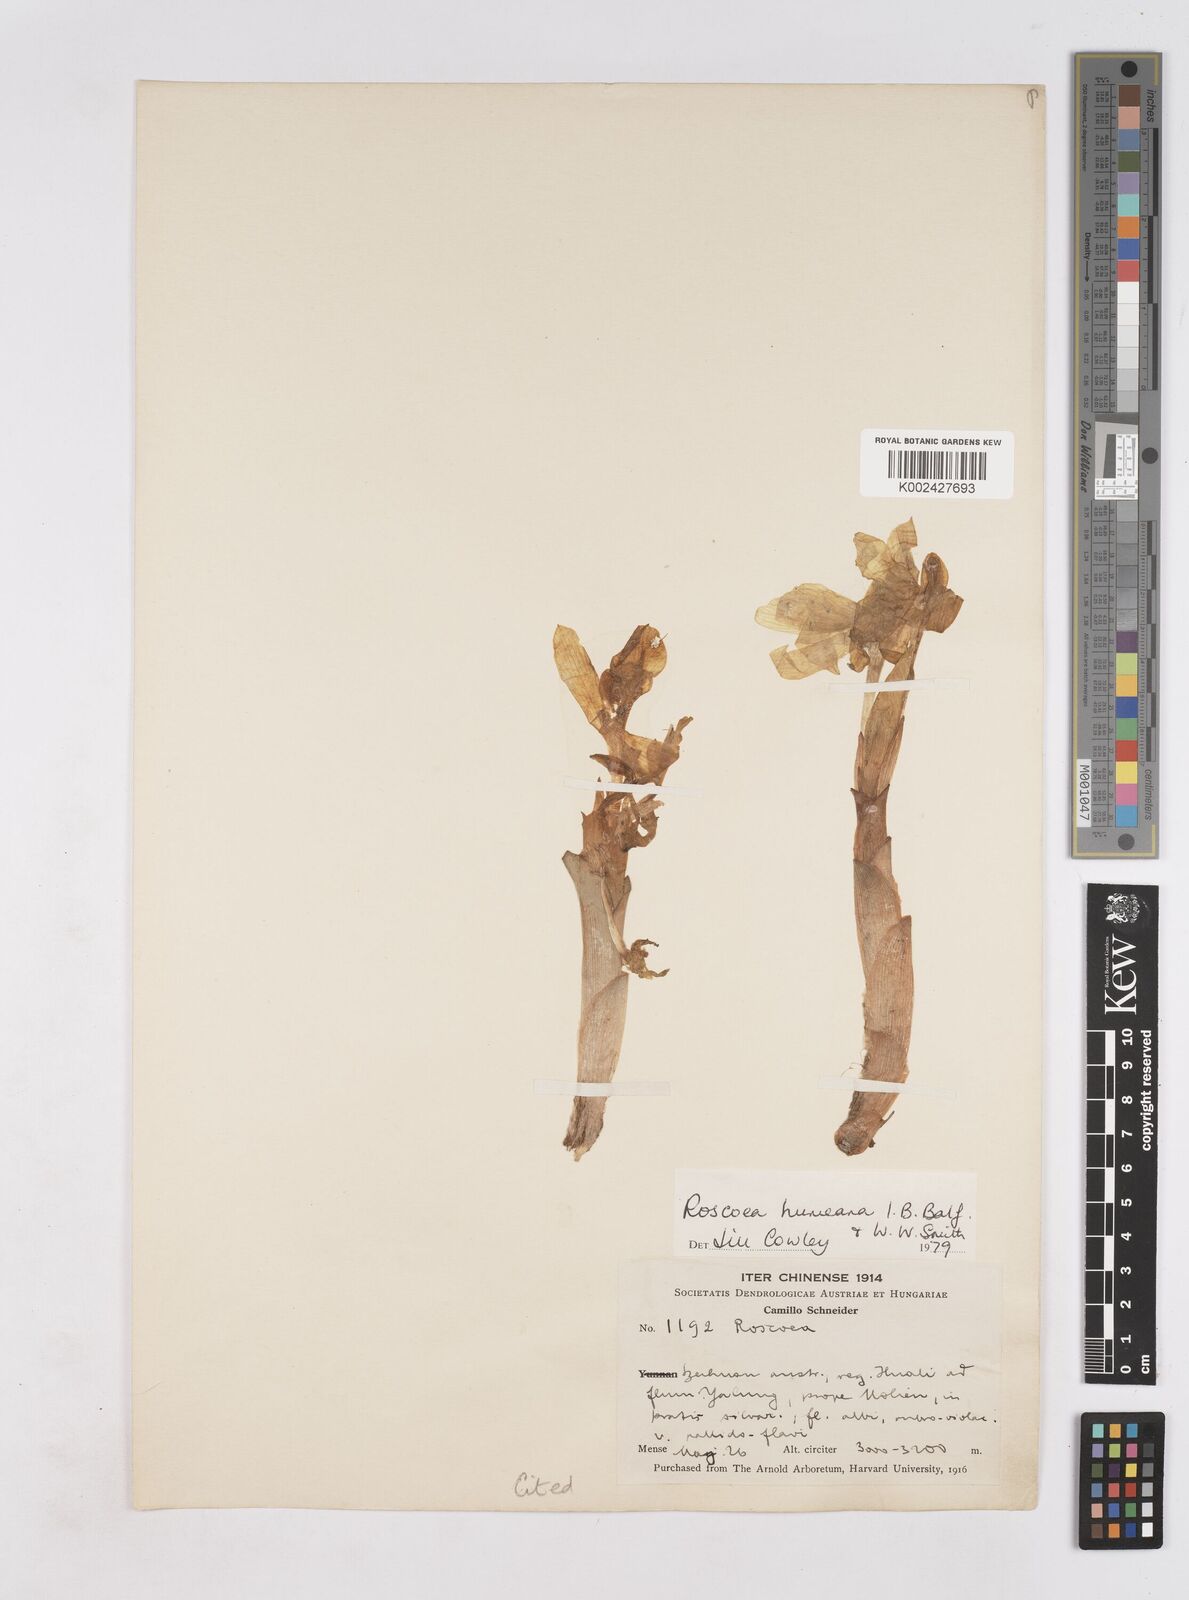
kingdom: Plantae
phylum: Tracheophyta
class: Liliopsida
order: Zingiberales
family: Zingiberaceae
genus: Roscoea
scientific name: Roscoea humeana
